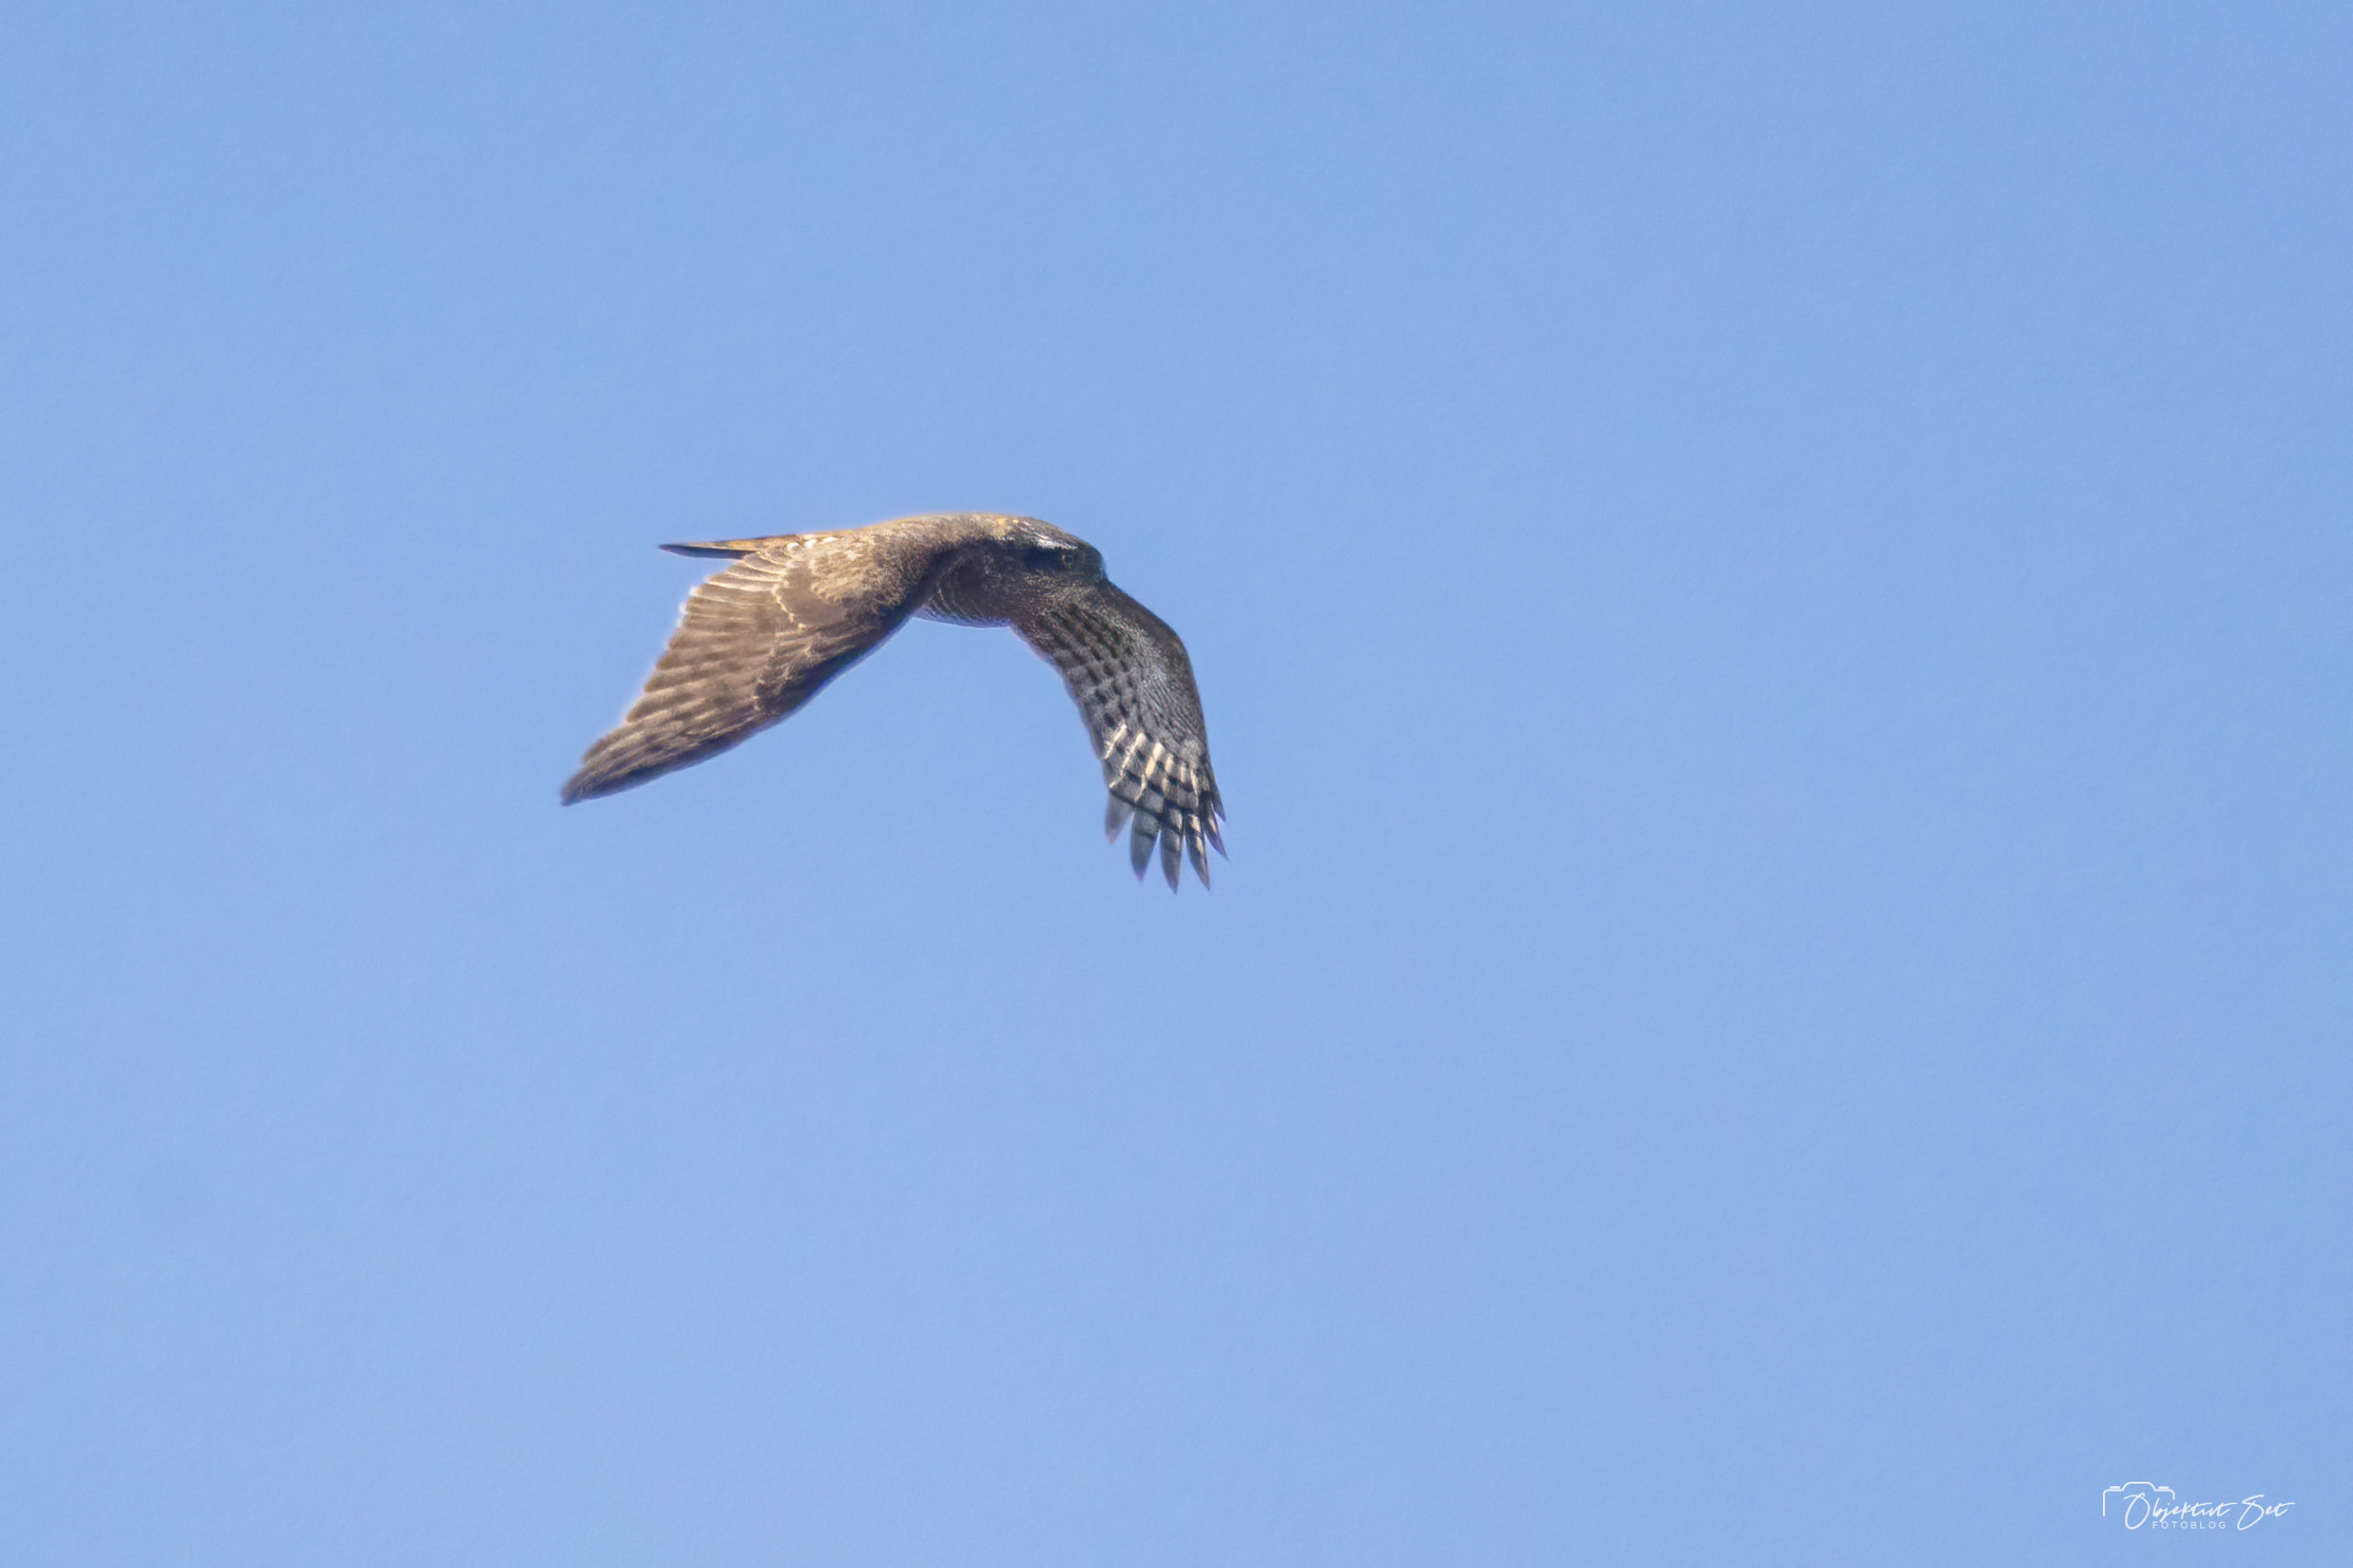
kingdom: Animalia
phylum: Chordata
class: Aves
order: Accipitriformes
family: Accipitridae
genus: Accipiter
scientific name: Accipiter nisus
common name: Spurvehøg
